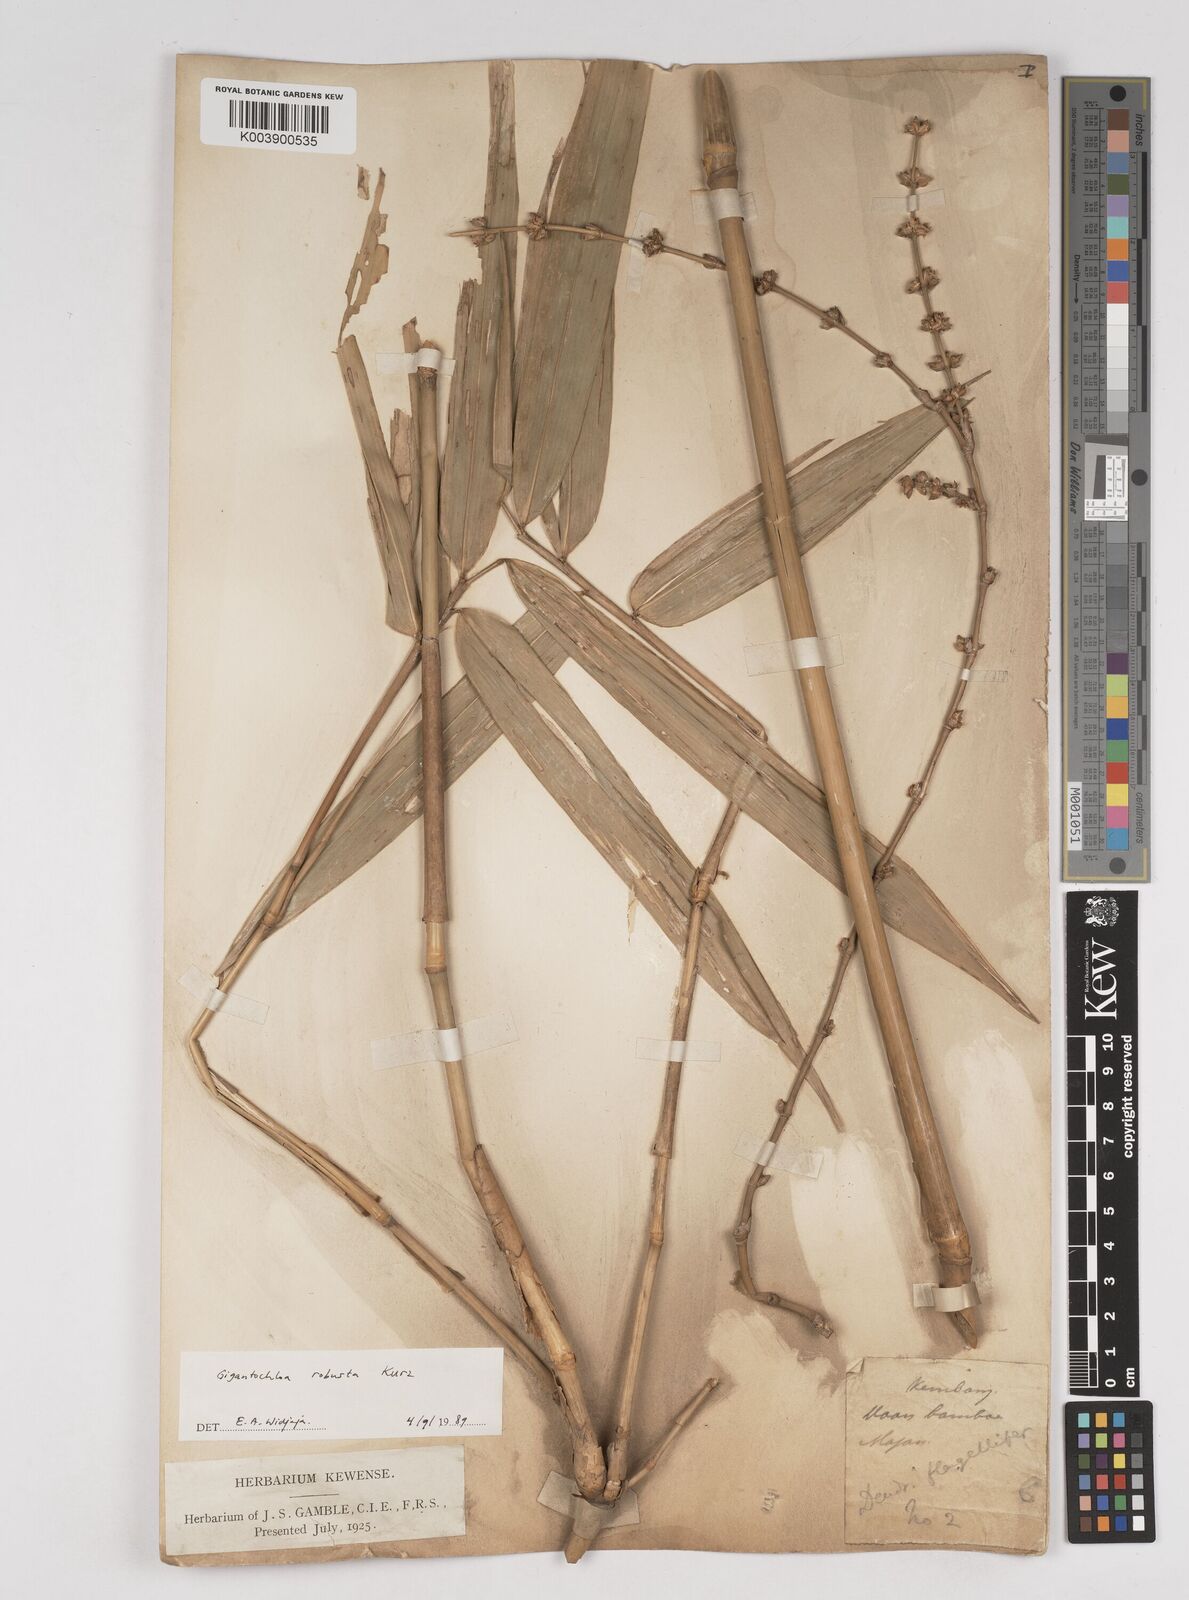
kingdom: Plantae
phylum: Tracheophyta
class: Liliopsida
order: Poales
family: Poaceae
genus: Gigantochloa
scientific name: Gigantochloa robusta
